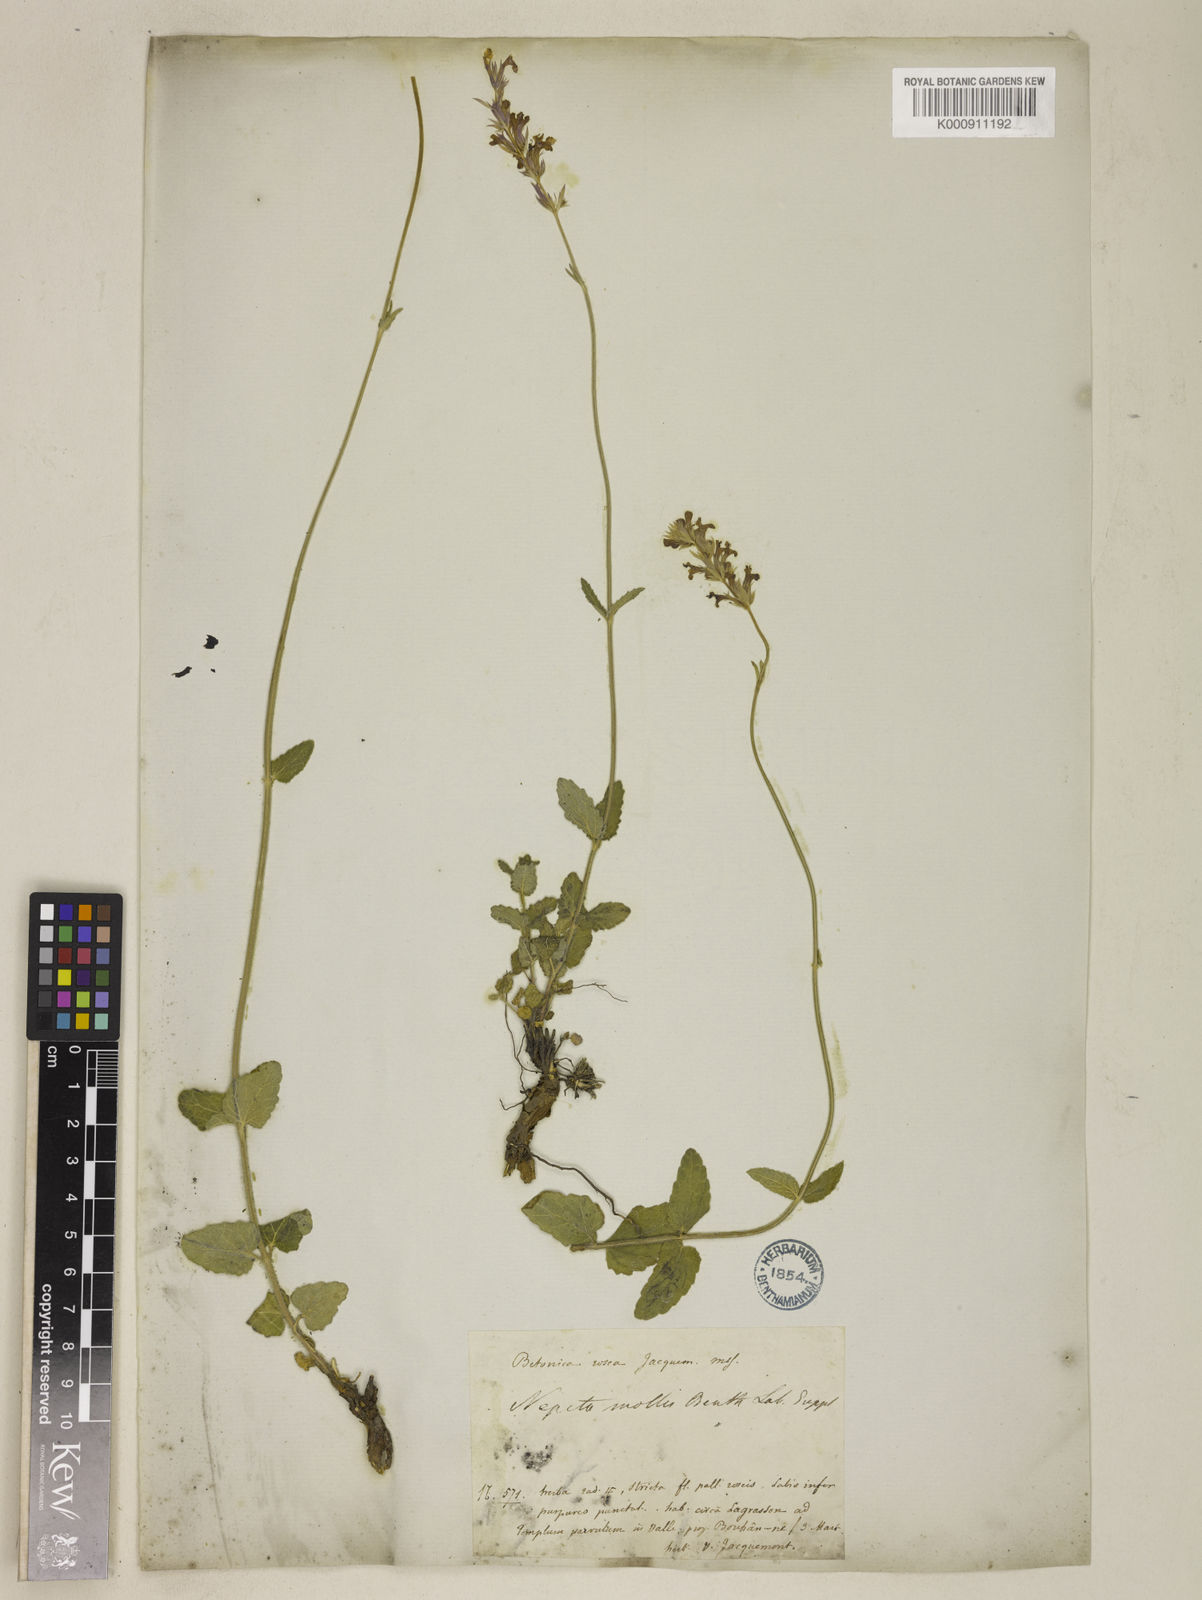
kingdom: Plantae
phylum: Tracheophyta
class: Magnoliopsida
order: Lamiales
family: Lamiaceae
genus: Nepeta
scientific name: Nepeta distans
